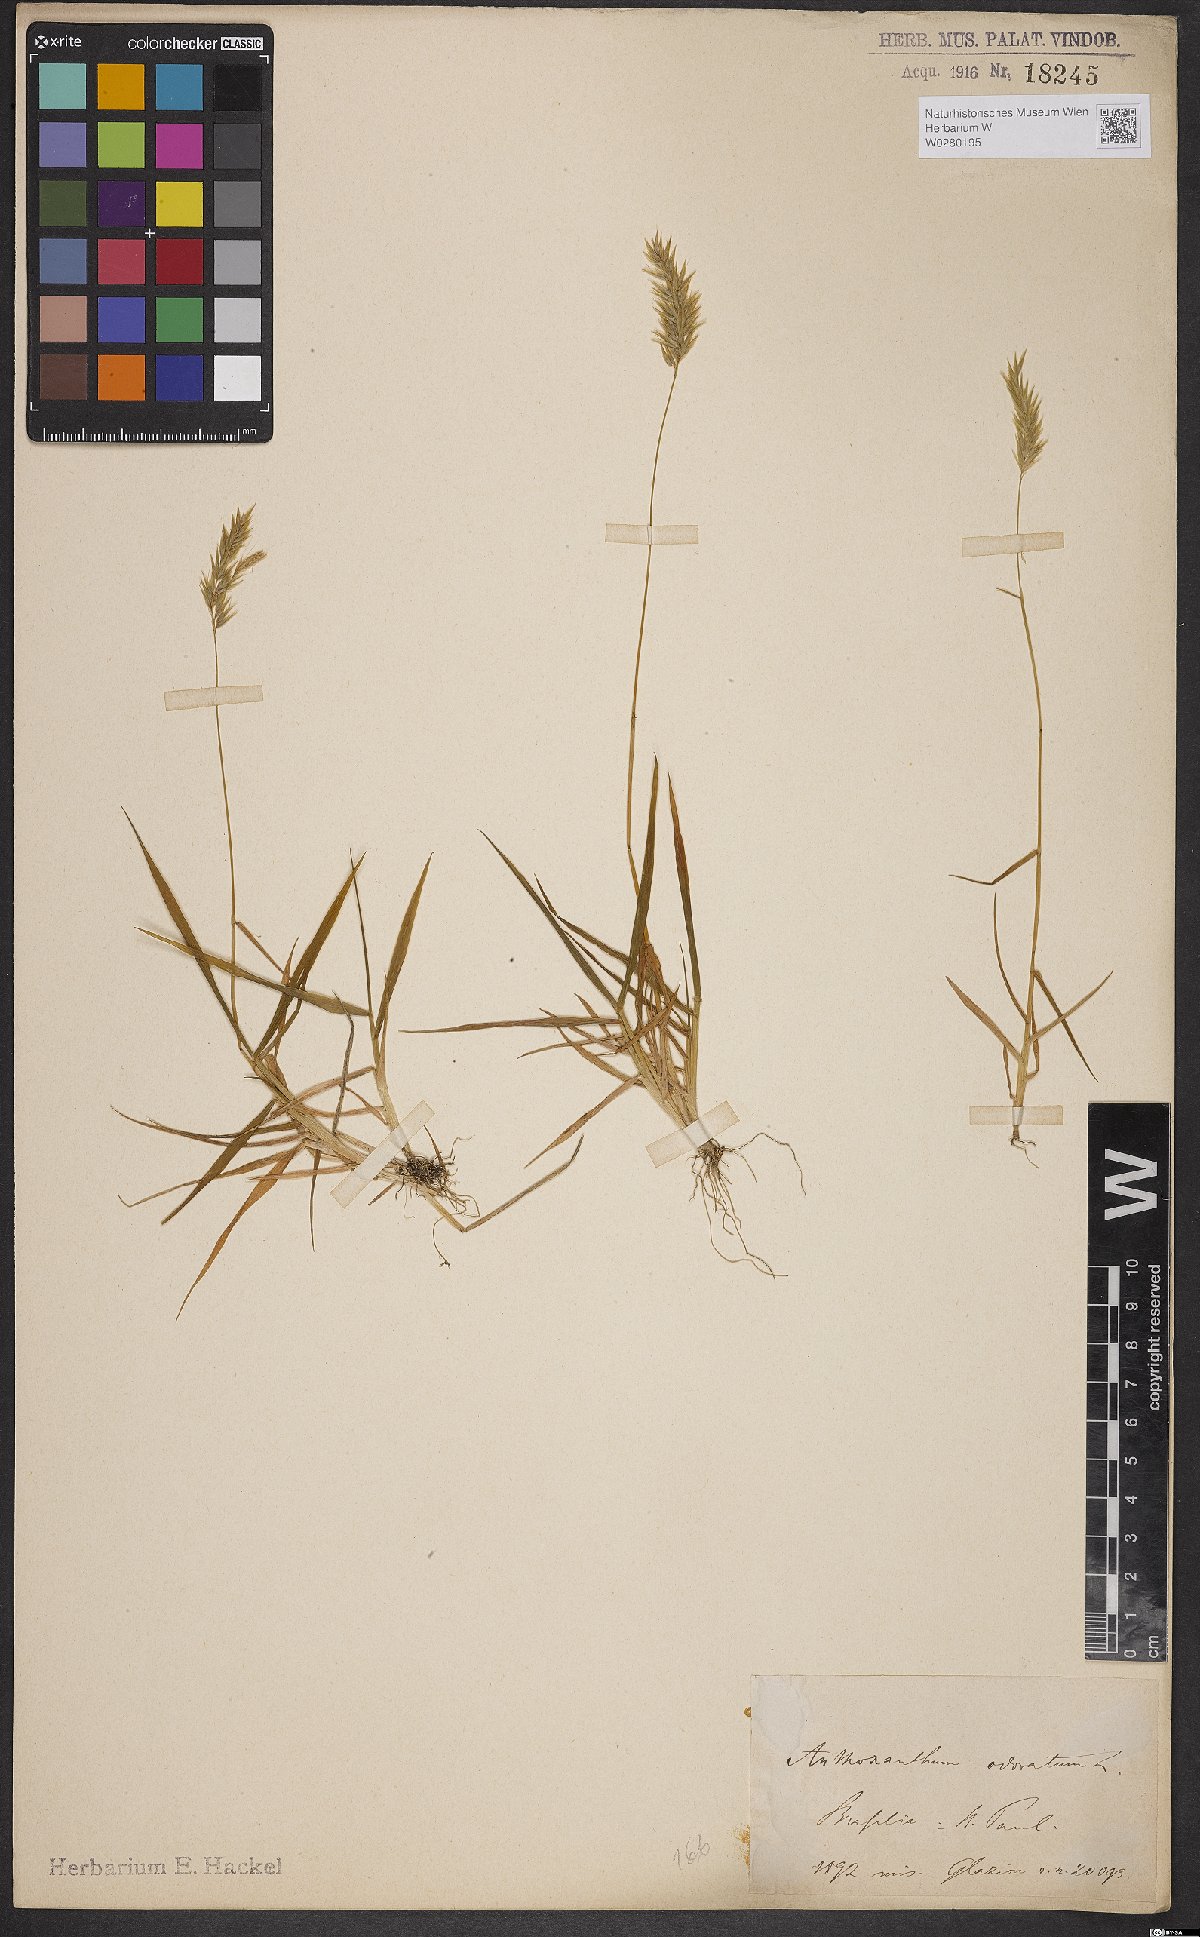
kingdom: Plantae
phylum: Tracheophyta
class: Liliopsida
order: Poales
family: Poaceae
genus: Anthoxanthum
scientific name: Anthoxanthum odoratum
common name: Sweet vernalgrass
